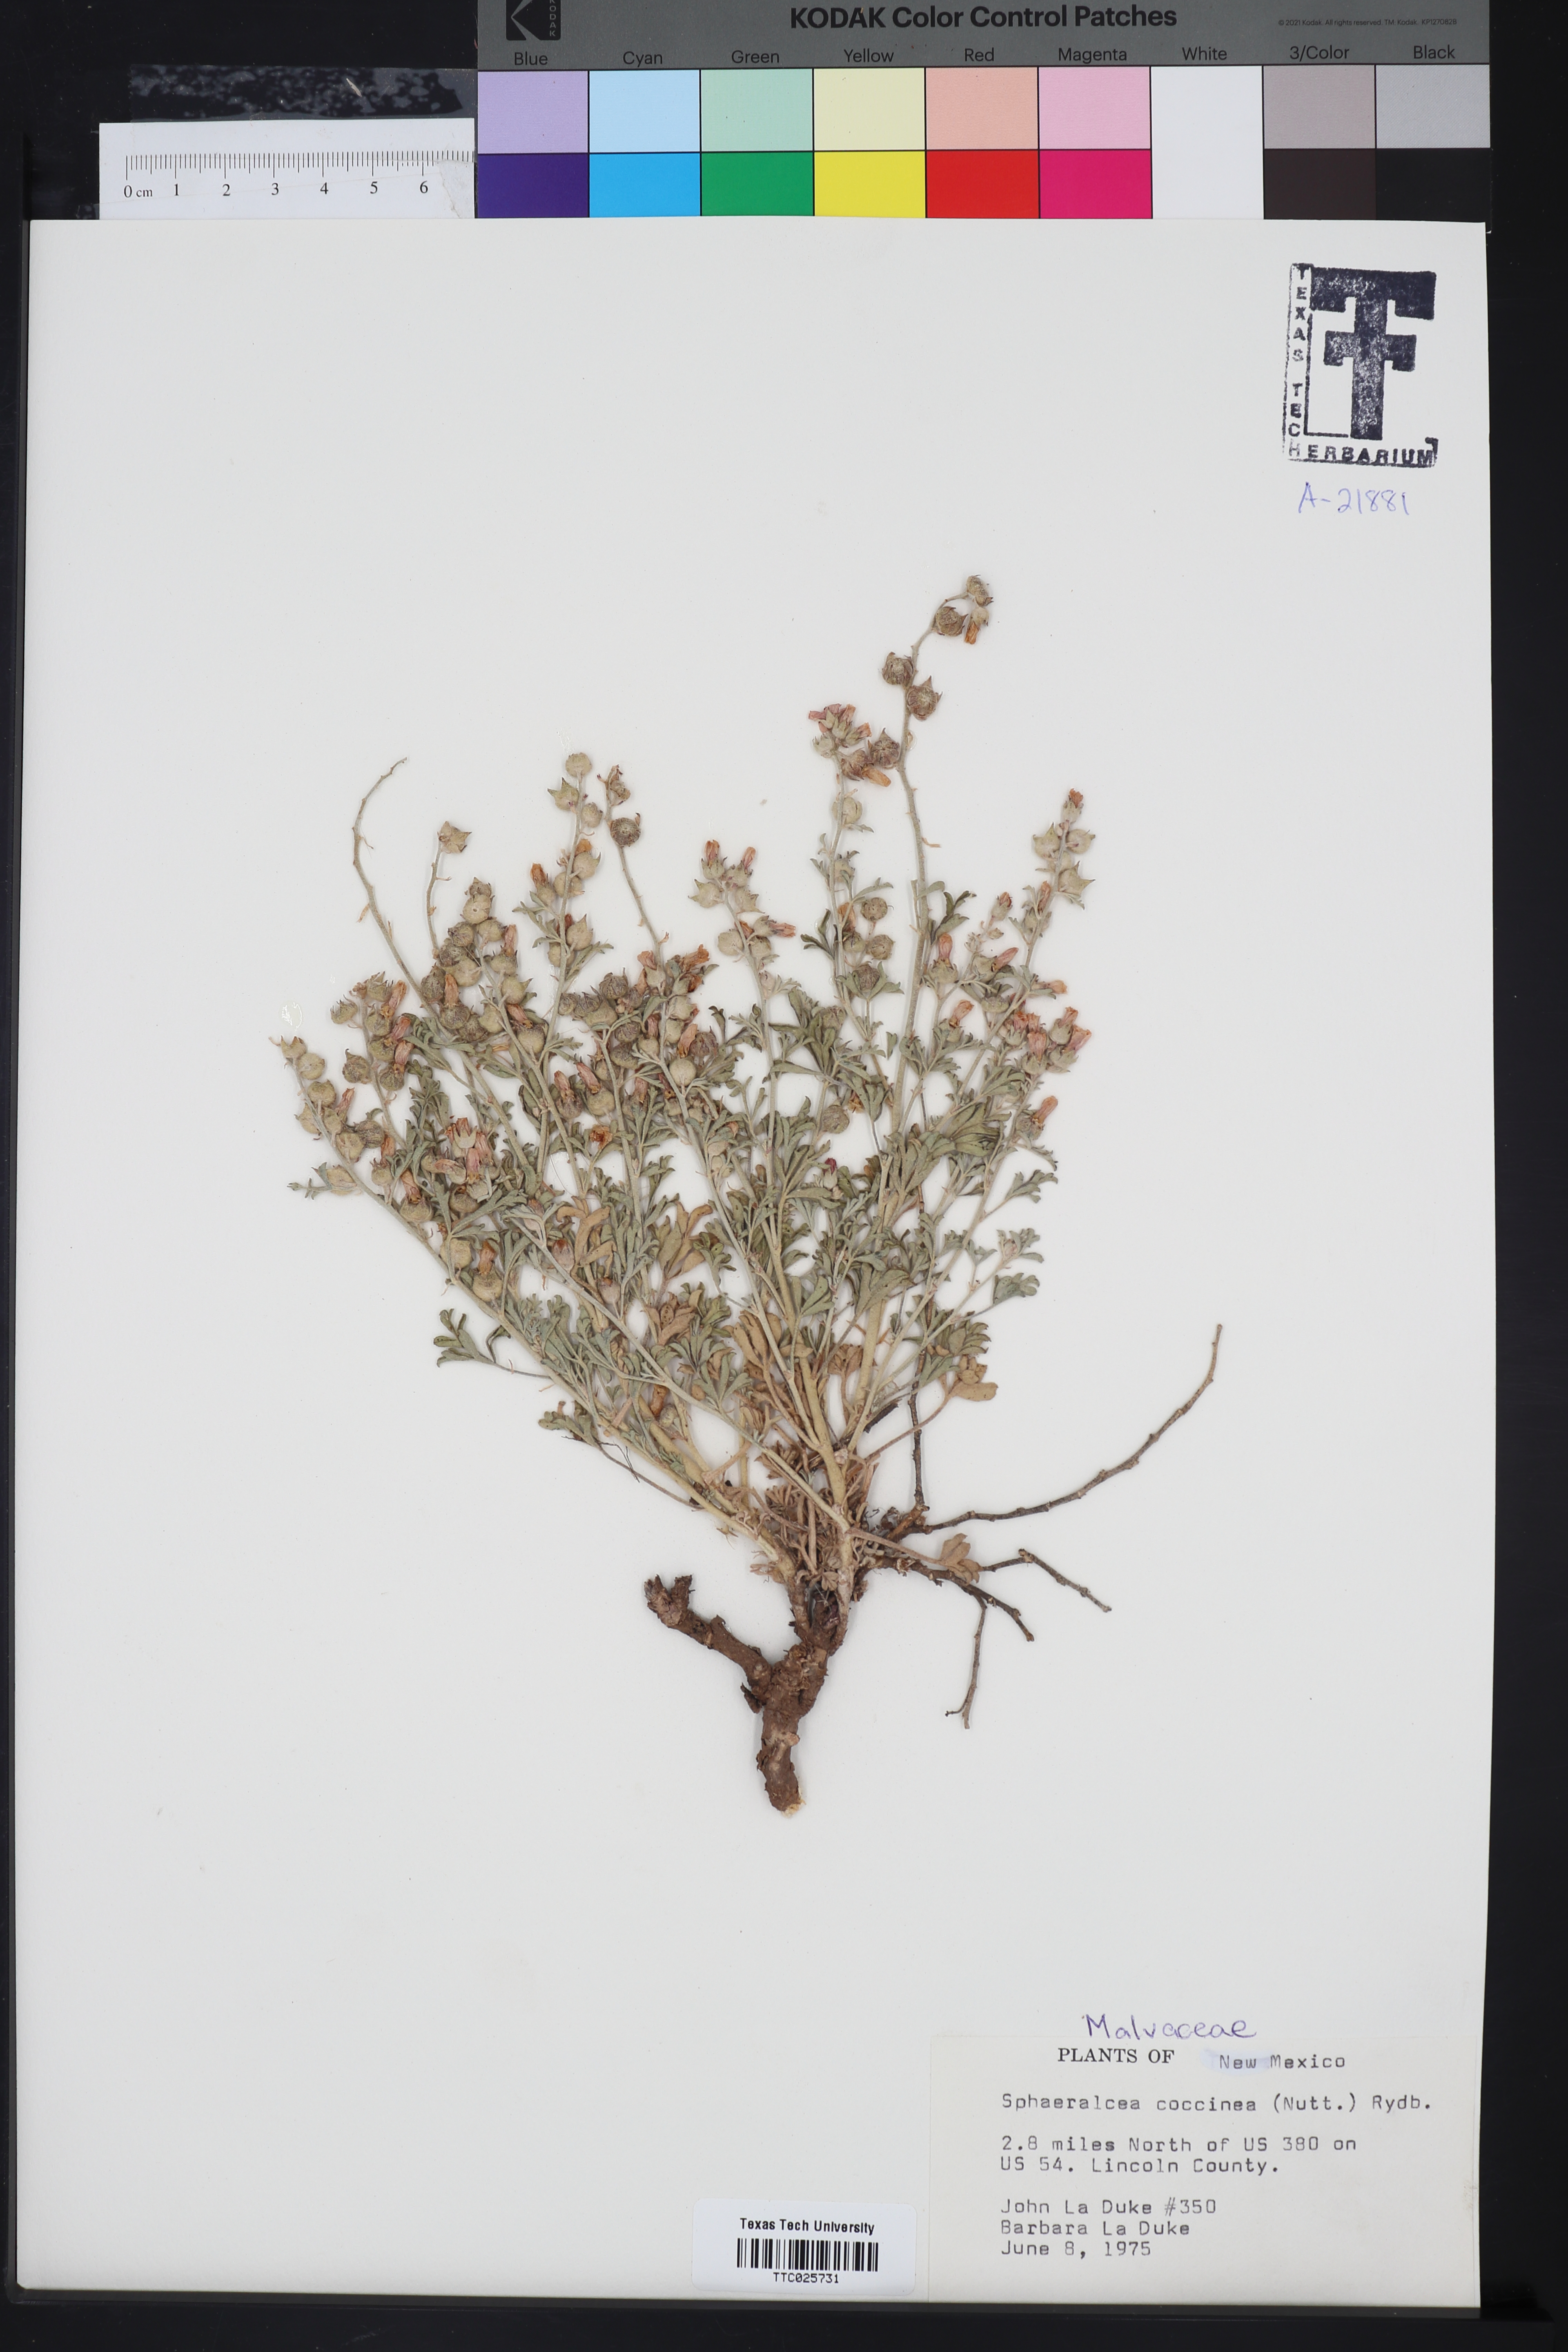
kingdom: Plantae
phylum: Tracheophyta
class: Magnoliopsida
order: Malvales
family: Malvaceae
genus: Sphaeralcea
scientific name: Sphaeralcea coccinea
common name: Moss-rose
